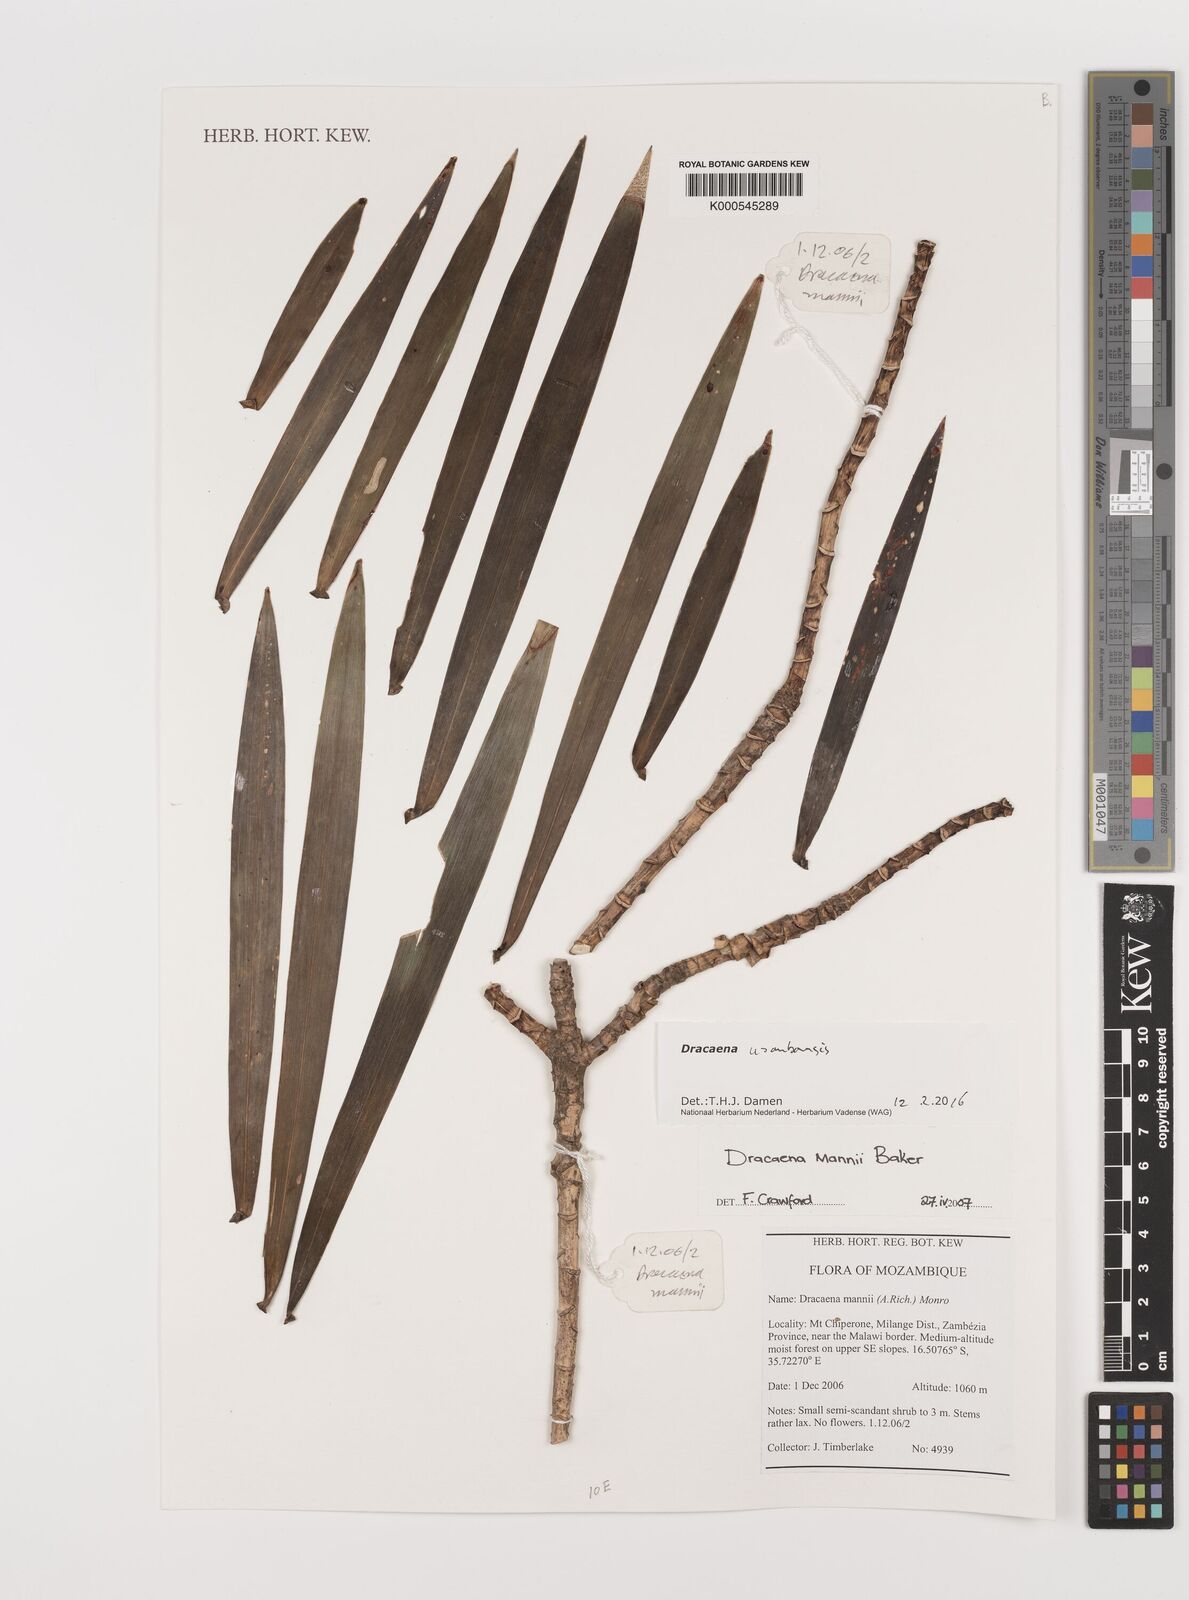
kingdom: Plantae
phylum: Tracheophyta
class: Liliopsida
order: Asparagales
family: Asparagaceae
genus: Dracaena
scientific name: Dracaena usambarensis
